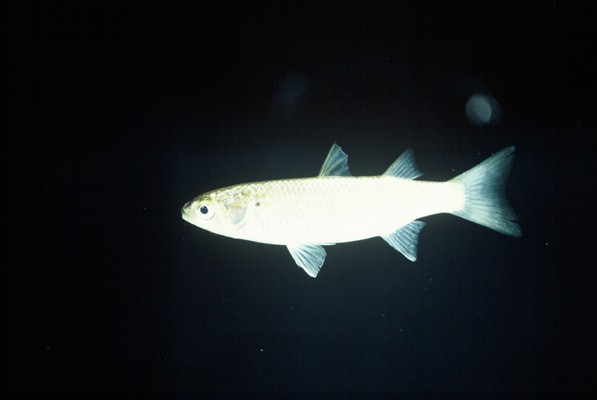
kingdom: Animalia
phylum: Chordata
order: Mugiliformes
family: Mugilidae
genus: Crenimugil
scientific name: Crenimugil crenilabis
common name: Fringelip mullet
